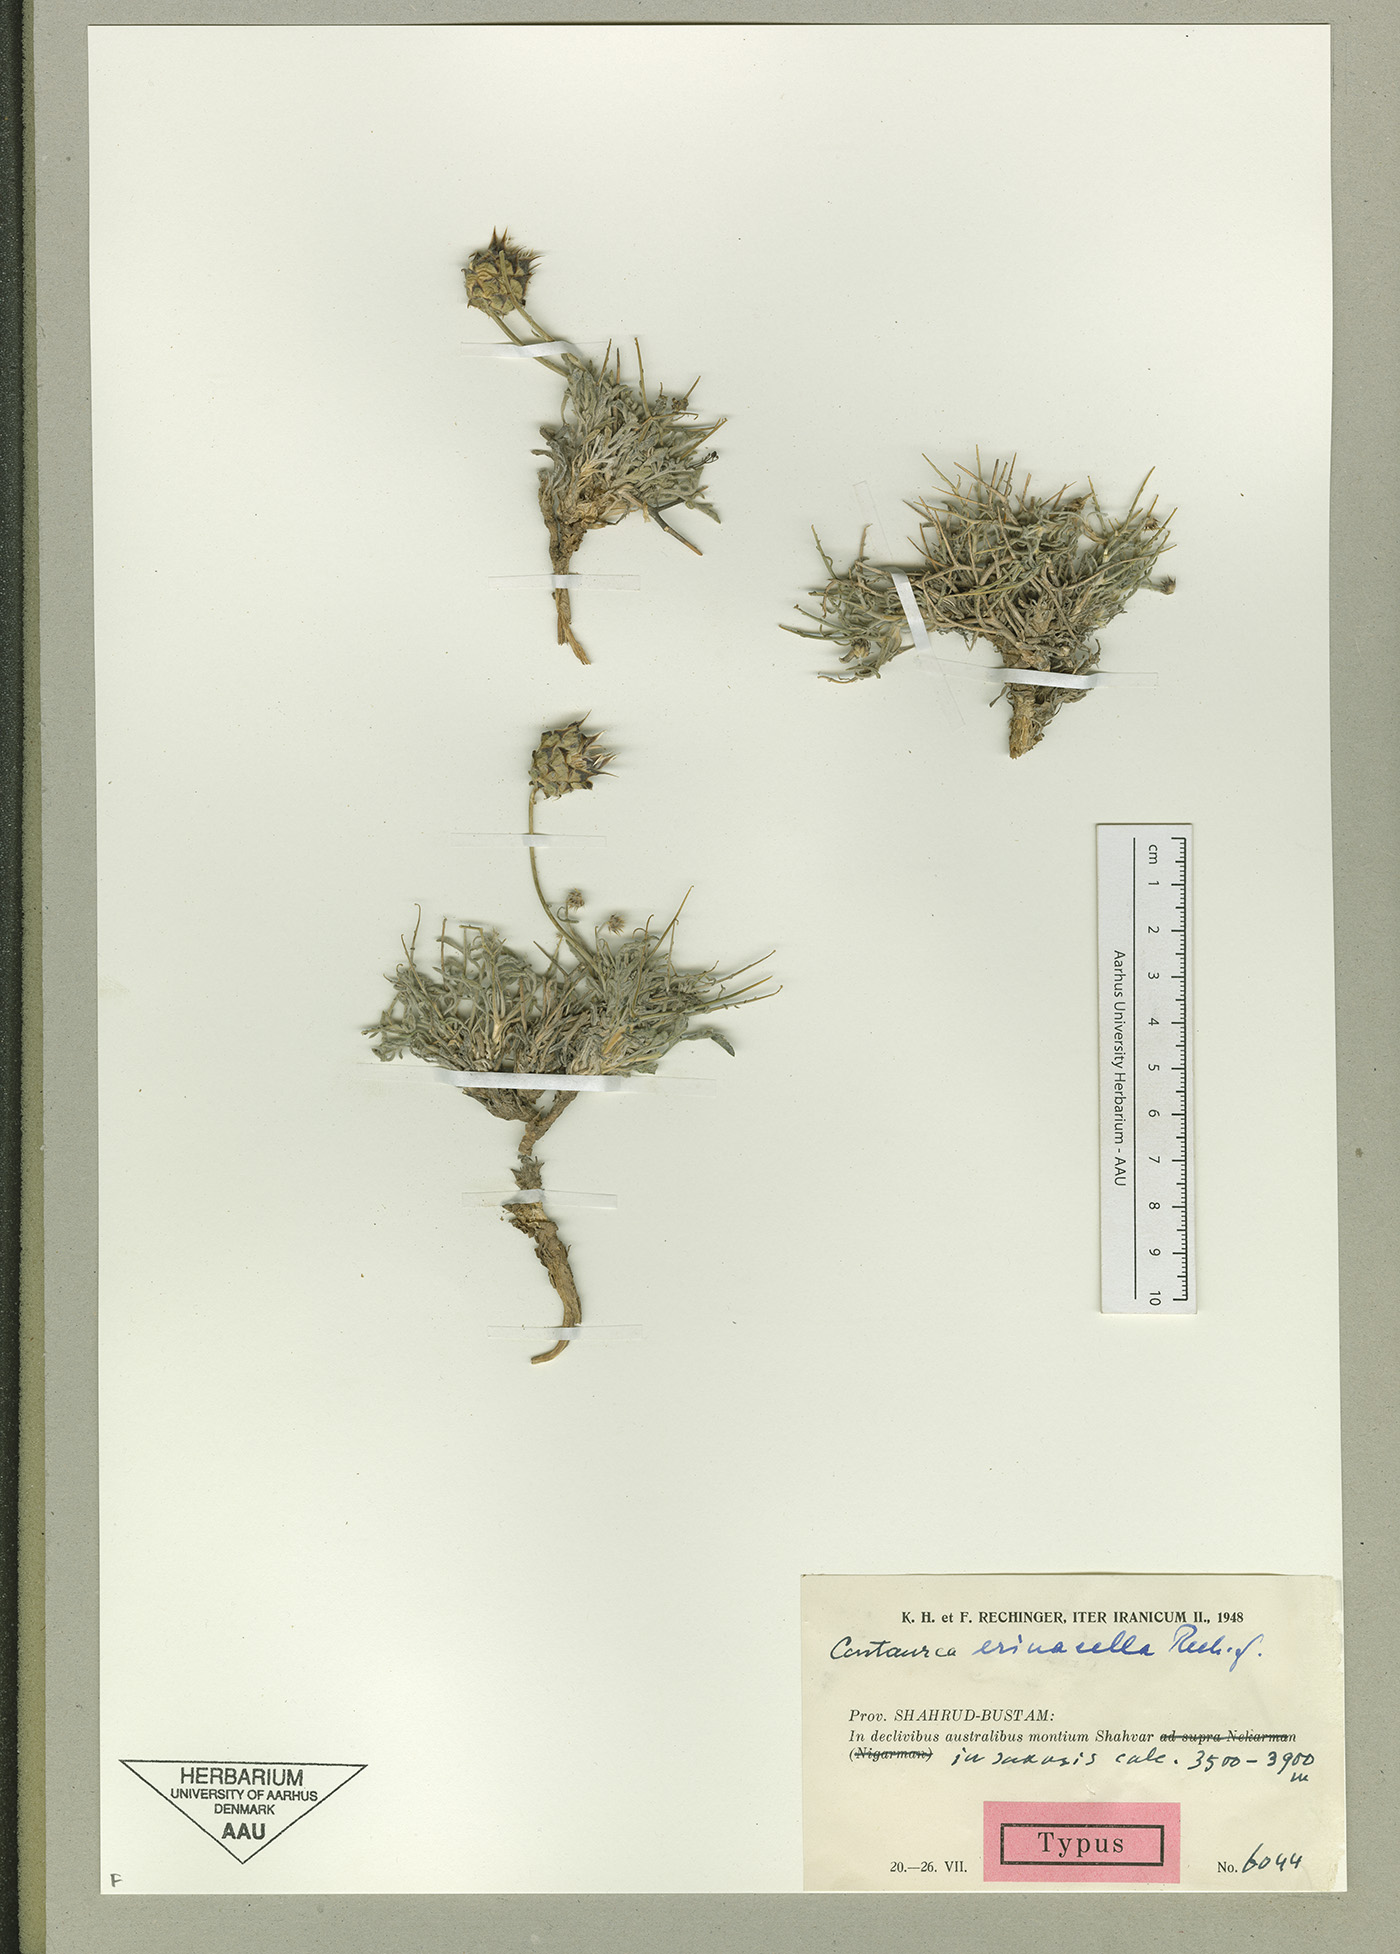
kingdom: Plantae
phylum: Tracheophyta
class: Magnoliopsida
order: Asterales
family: Asteraceae
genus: Centaurea
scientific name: Centaurea erinacella
